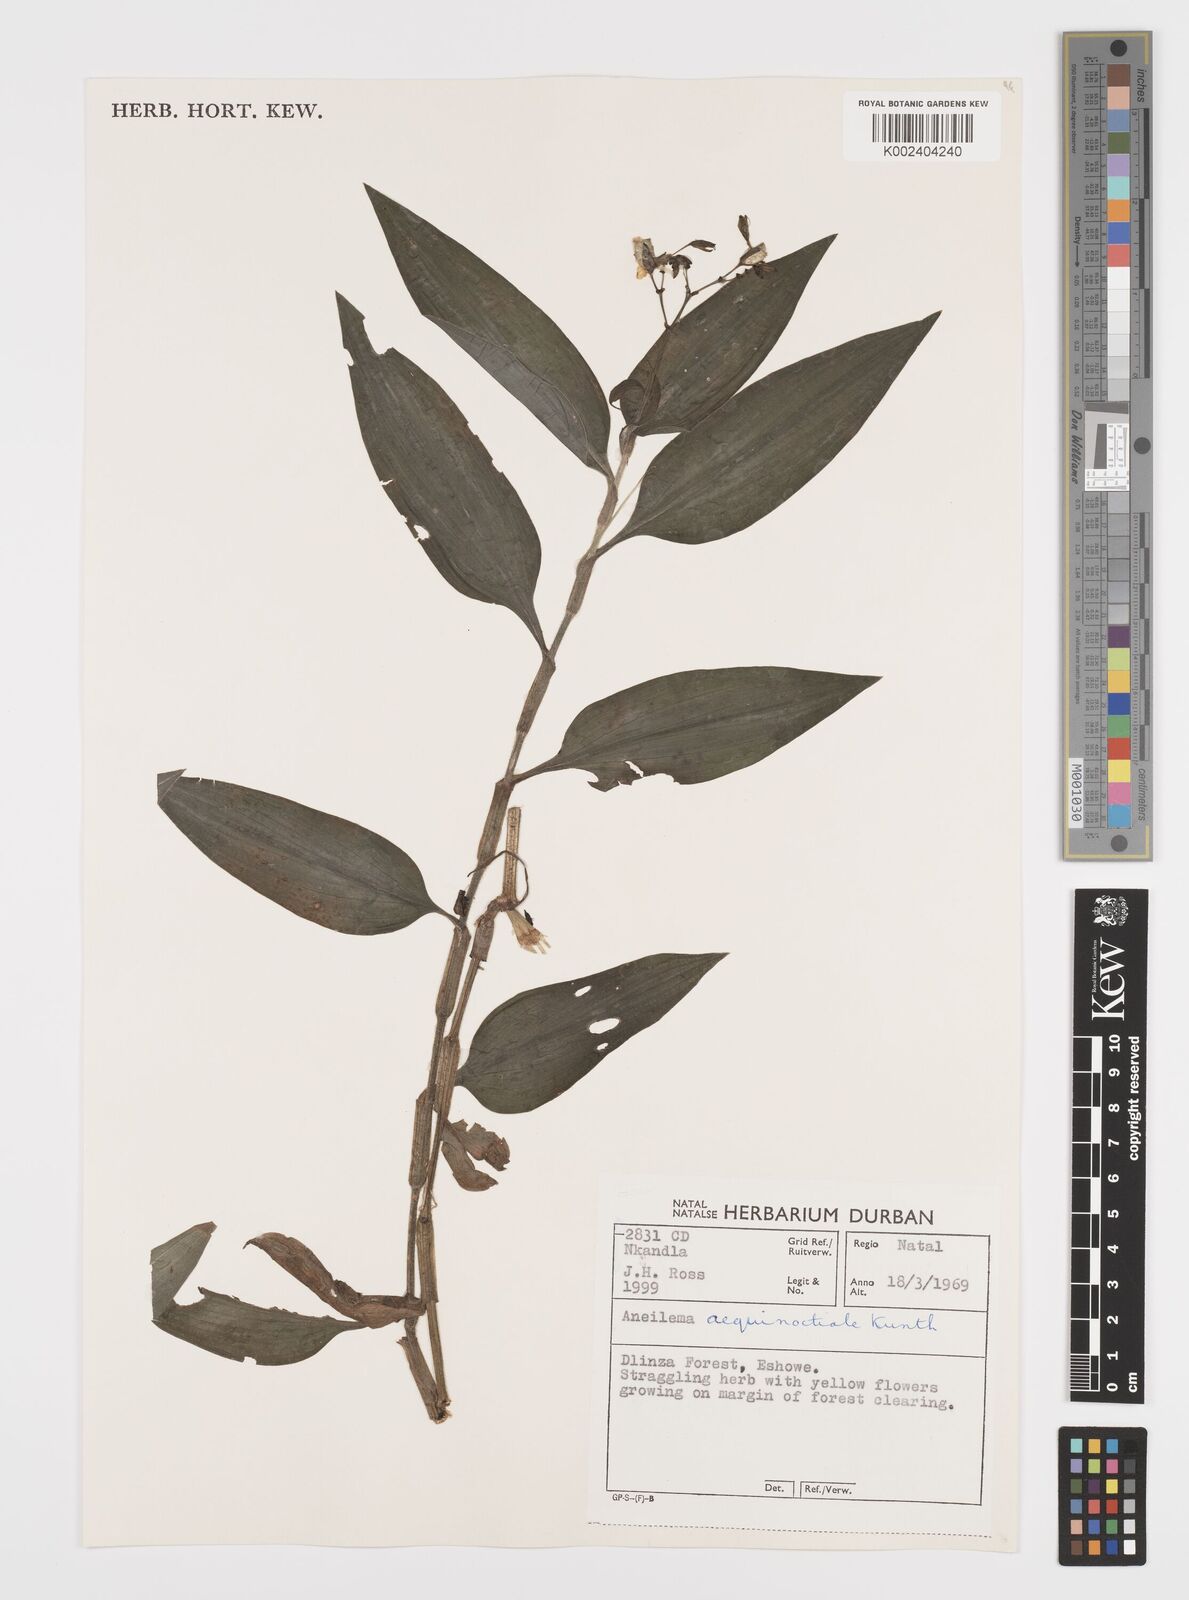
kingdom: Plantae
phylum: Tracheophyta
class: Liliopsida
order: Commelinales
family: Commelinaceae
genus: Aneilema
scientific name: Aneilema aequinoctiale
